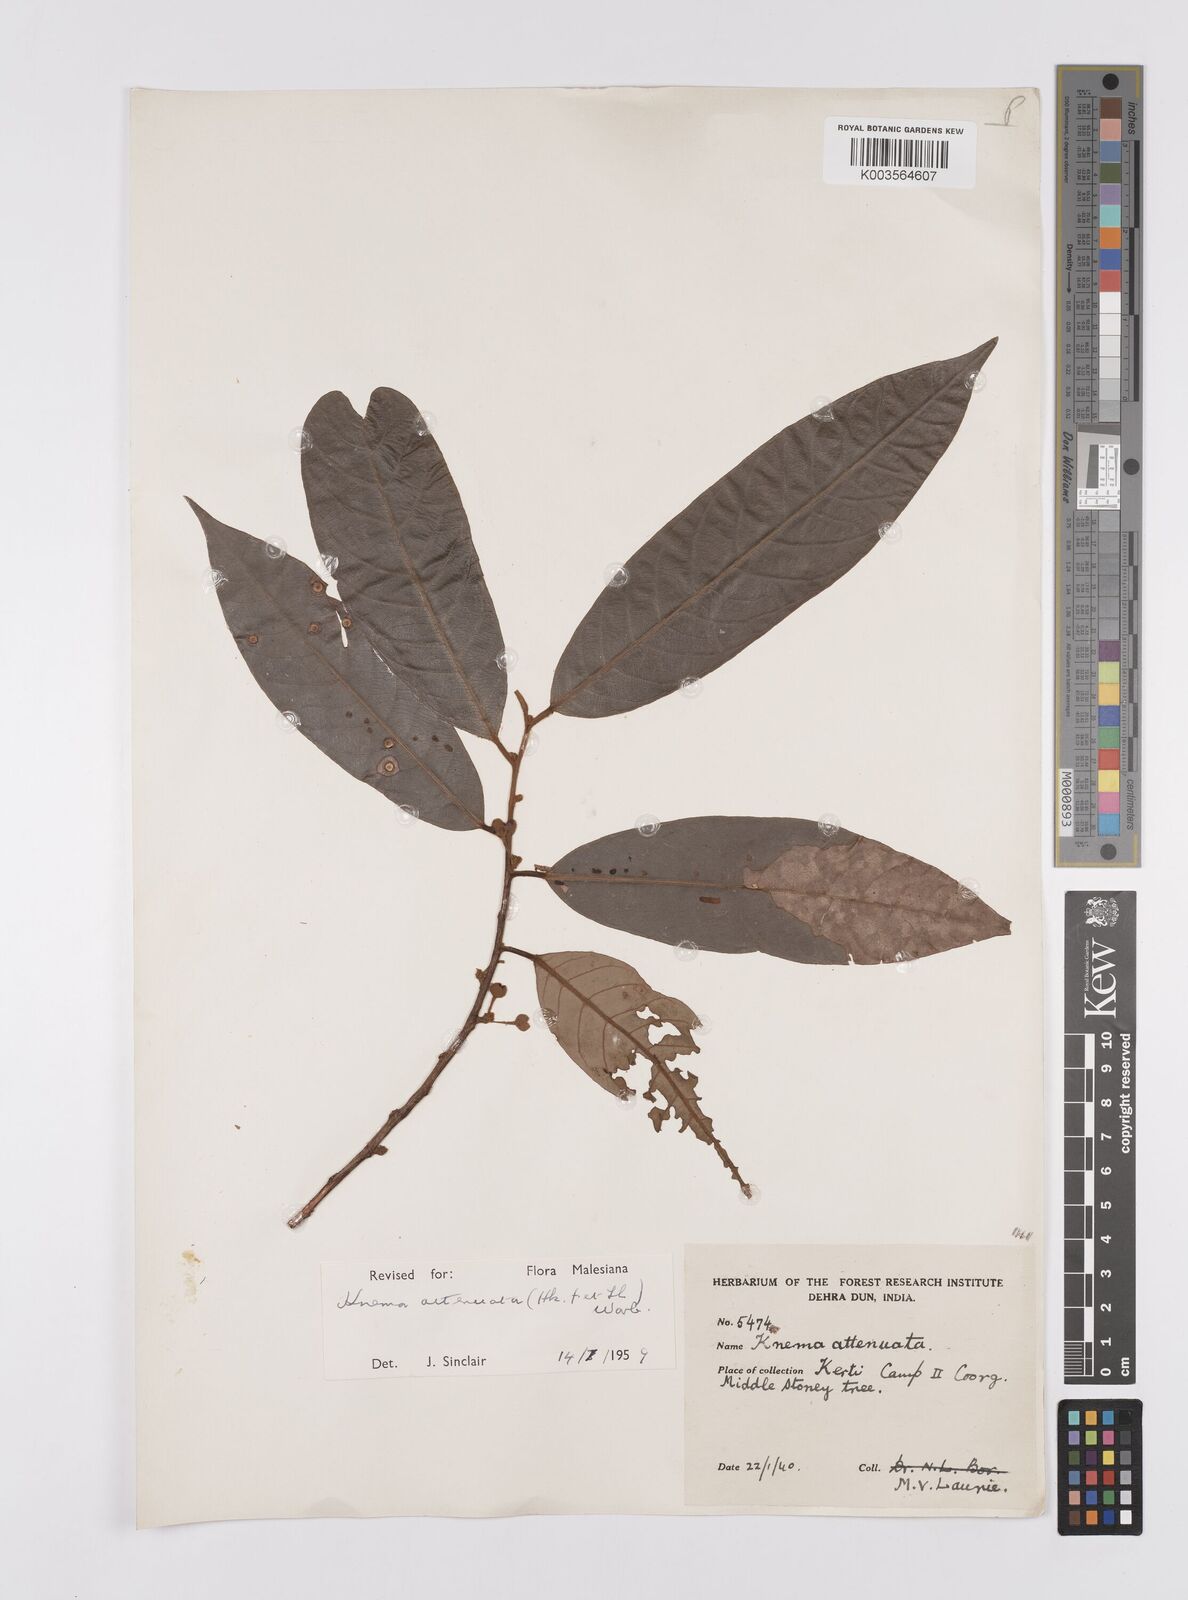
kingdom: Plantae
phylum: Tracheophyta
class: Magnoliopsida
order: Magnoliales
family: Myristicaceae
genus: Knema
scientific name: Knema attenuata
